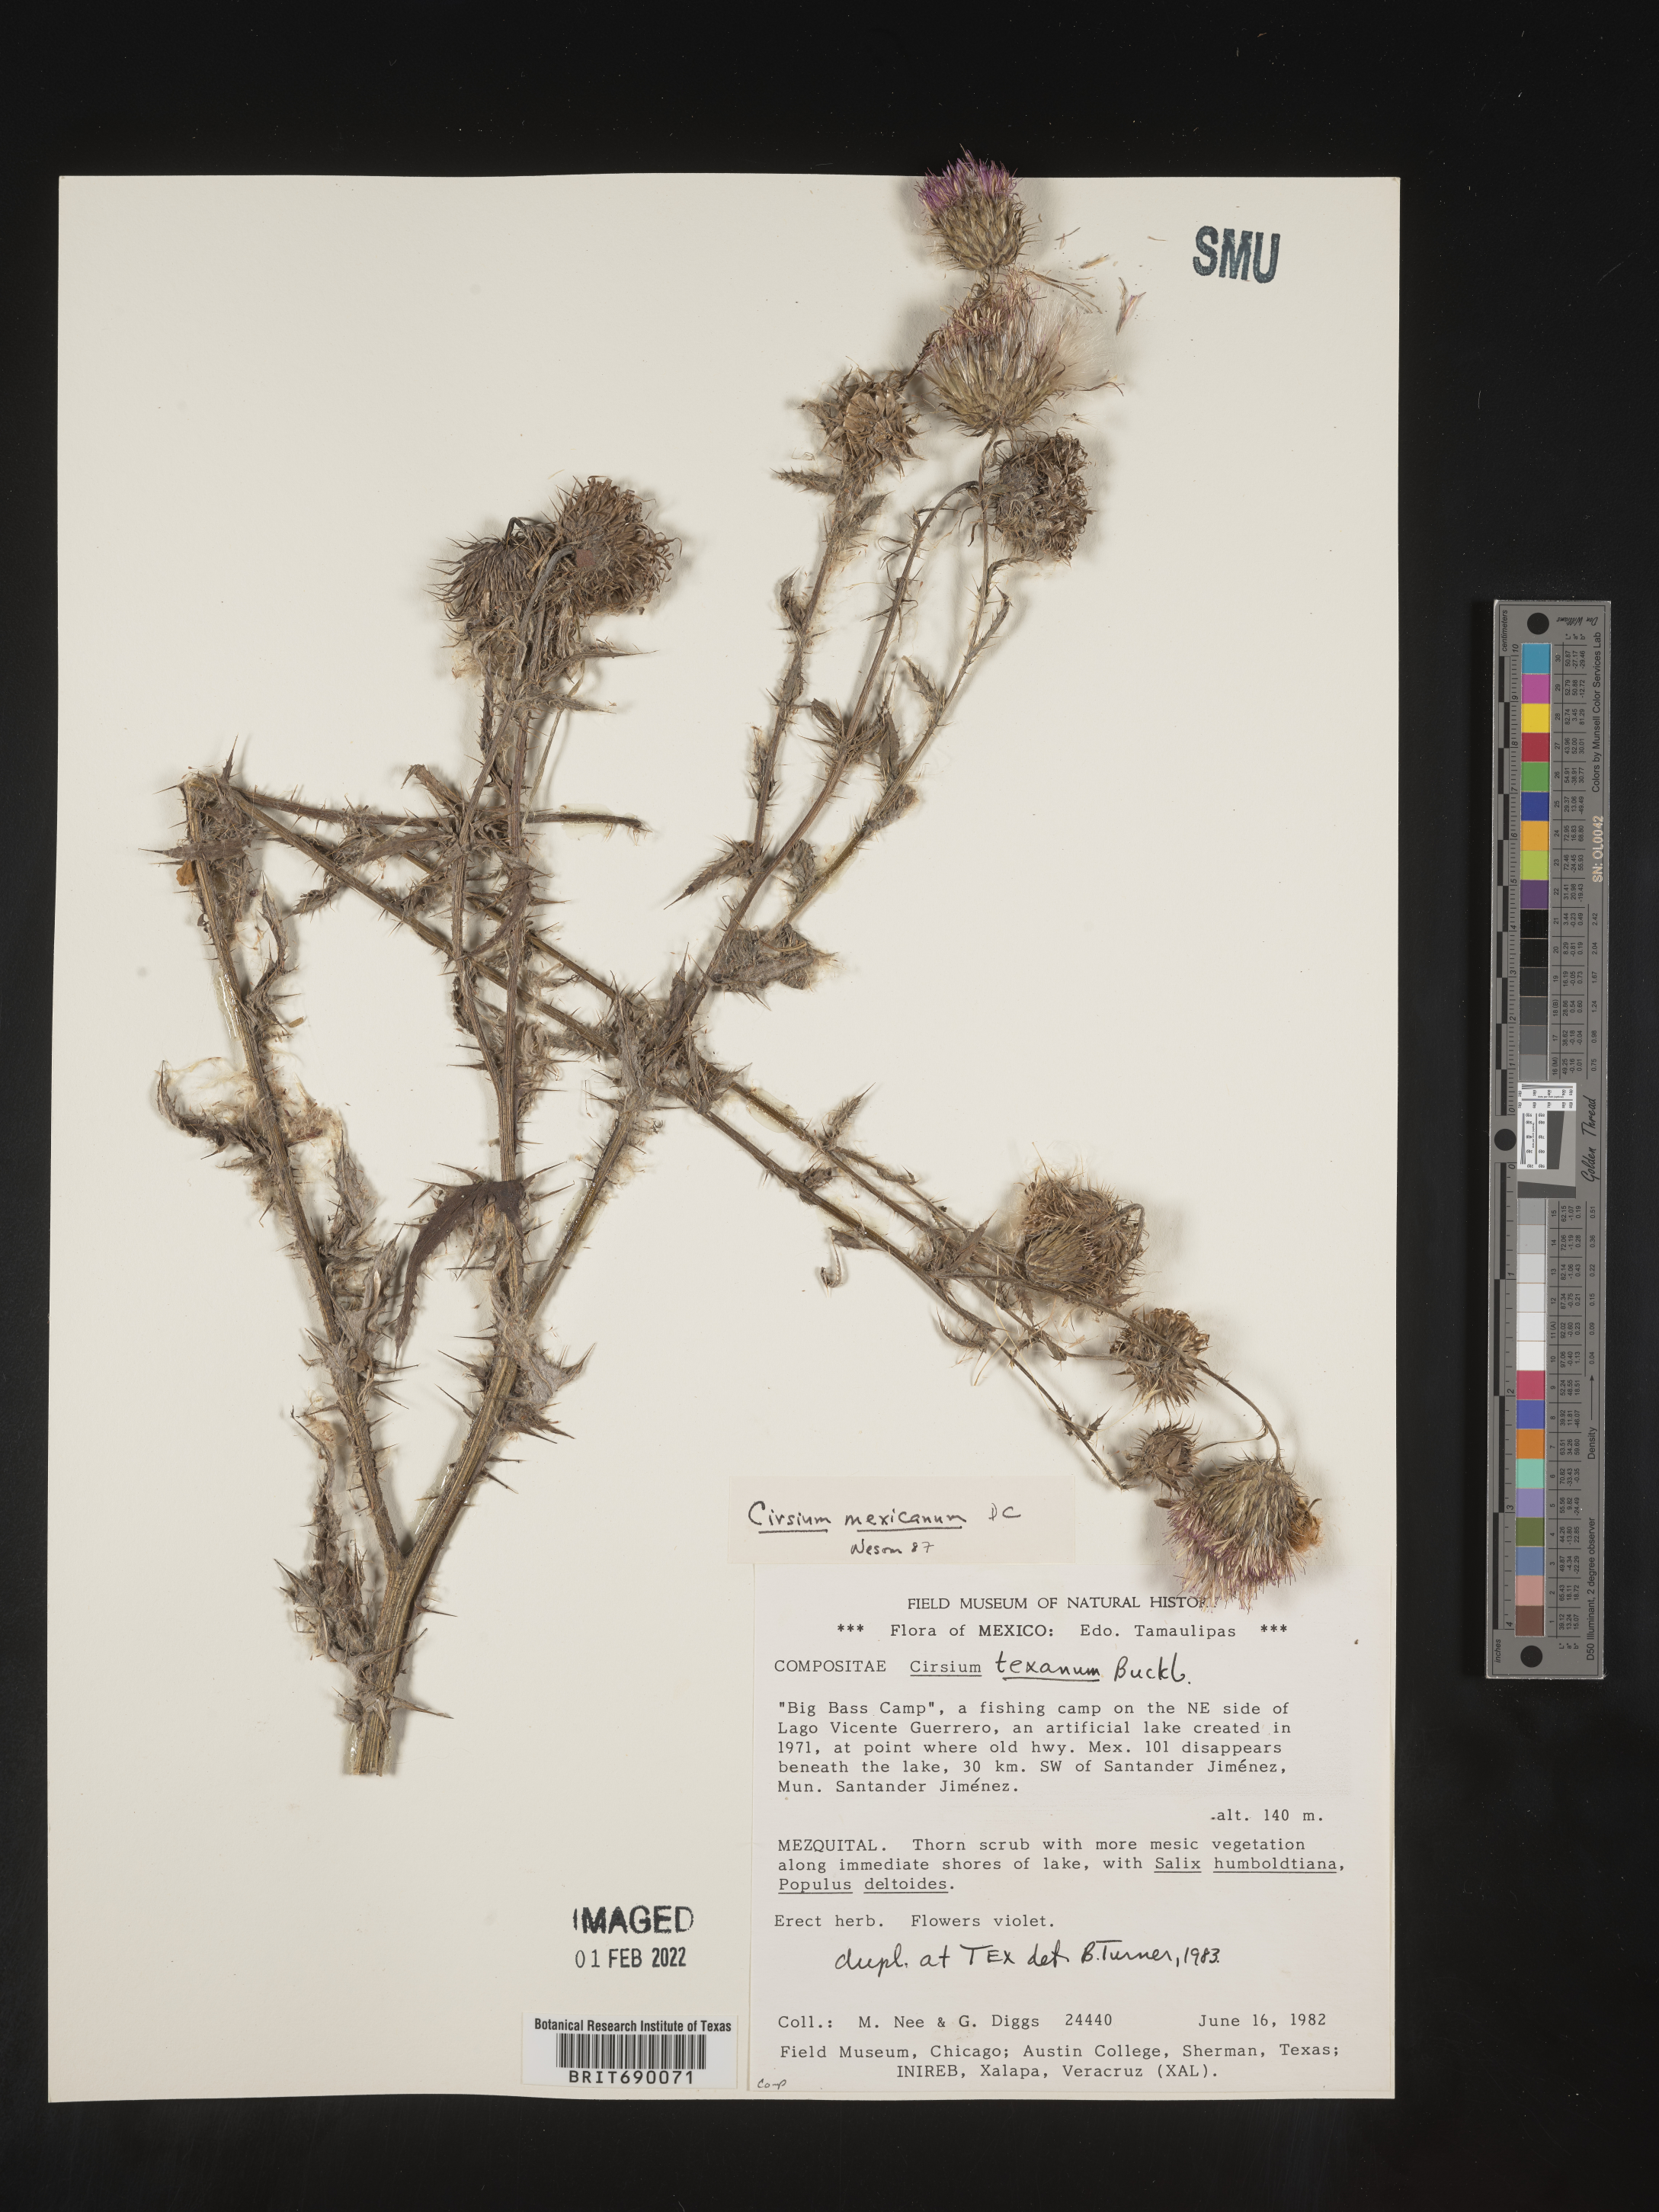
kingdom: Plantae
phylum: Tracheophyta
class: Magnoliopsida
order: Asterales
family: Asteraceae
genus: Cirsium
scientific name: Cirsium
